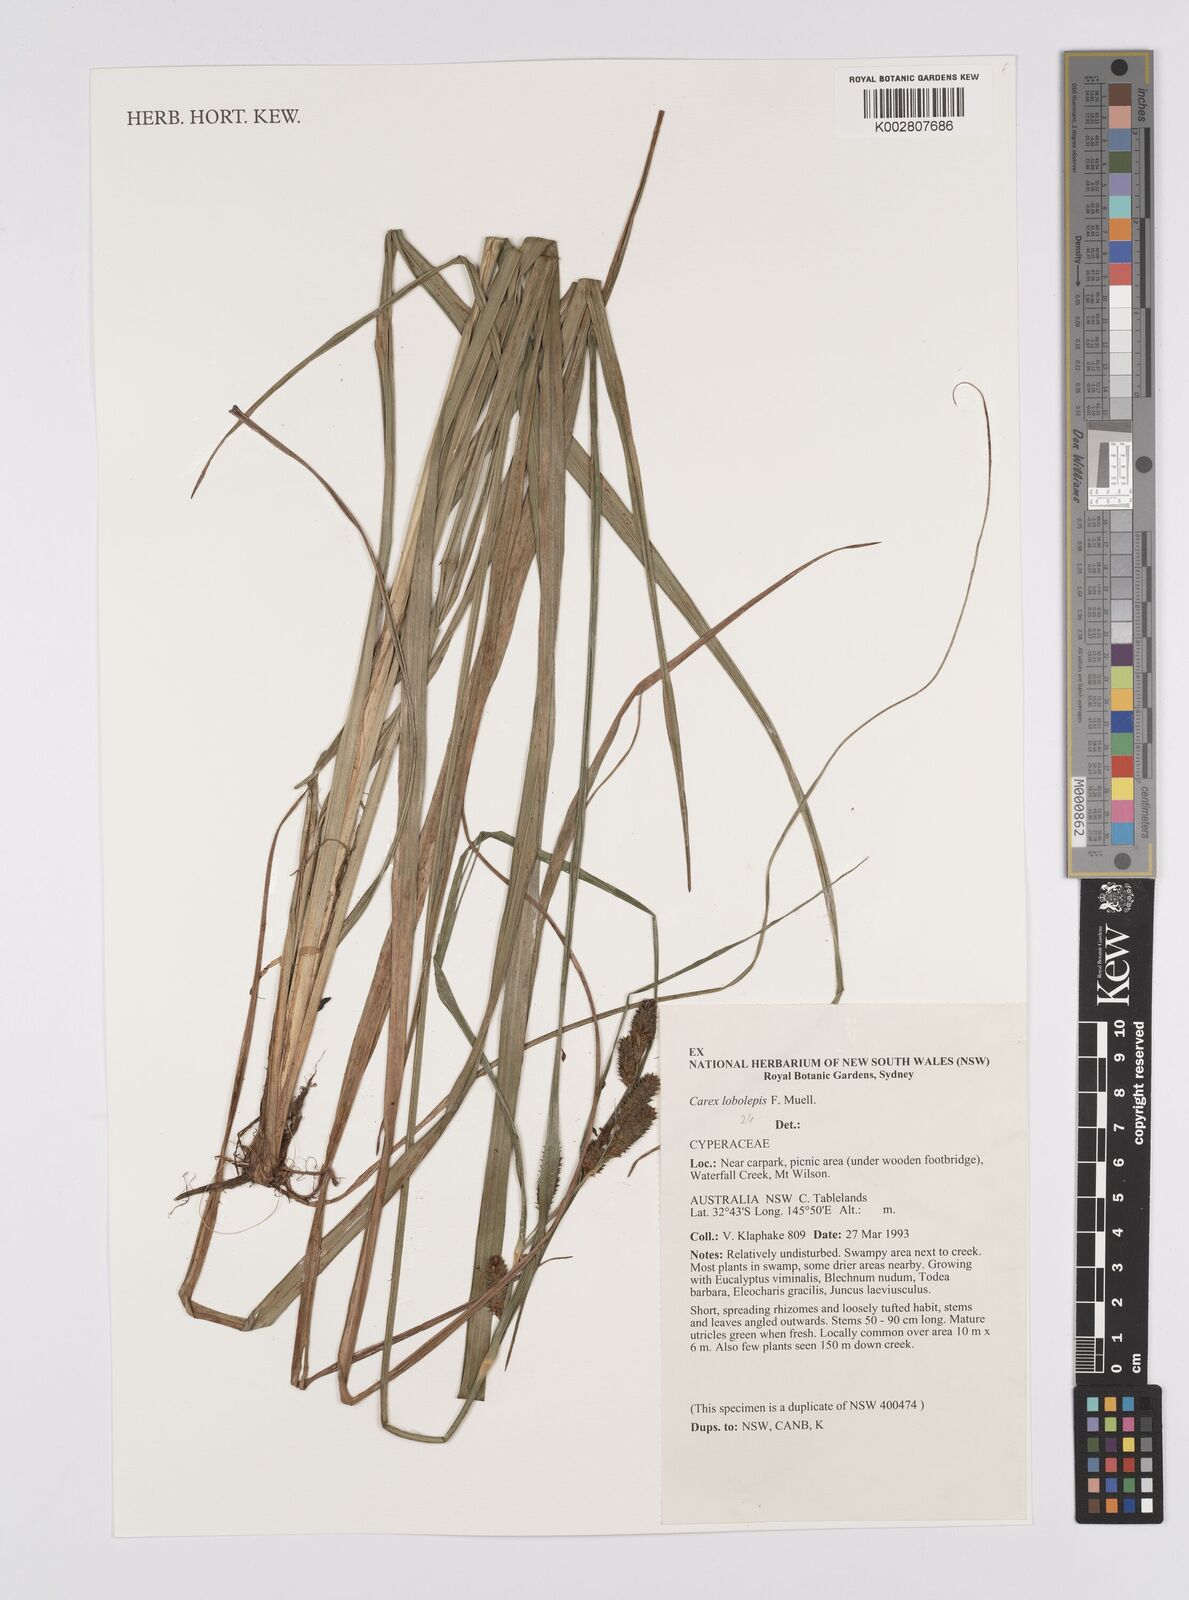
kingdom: Plantae
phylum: Tracheophyta
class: Liliopsida
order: Poales
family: Cyperaceae
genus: Carex
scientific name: Carex lobolepis
